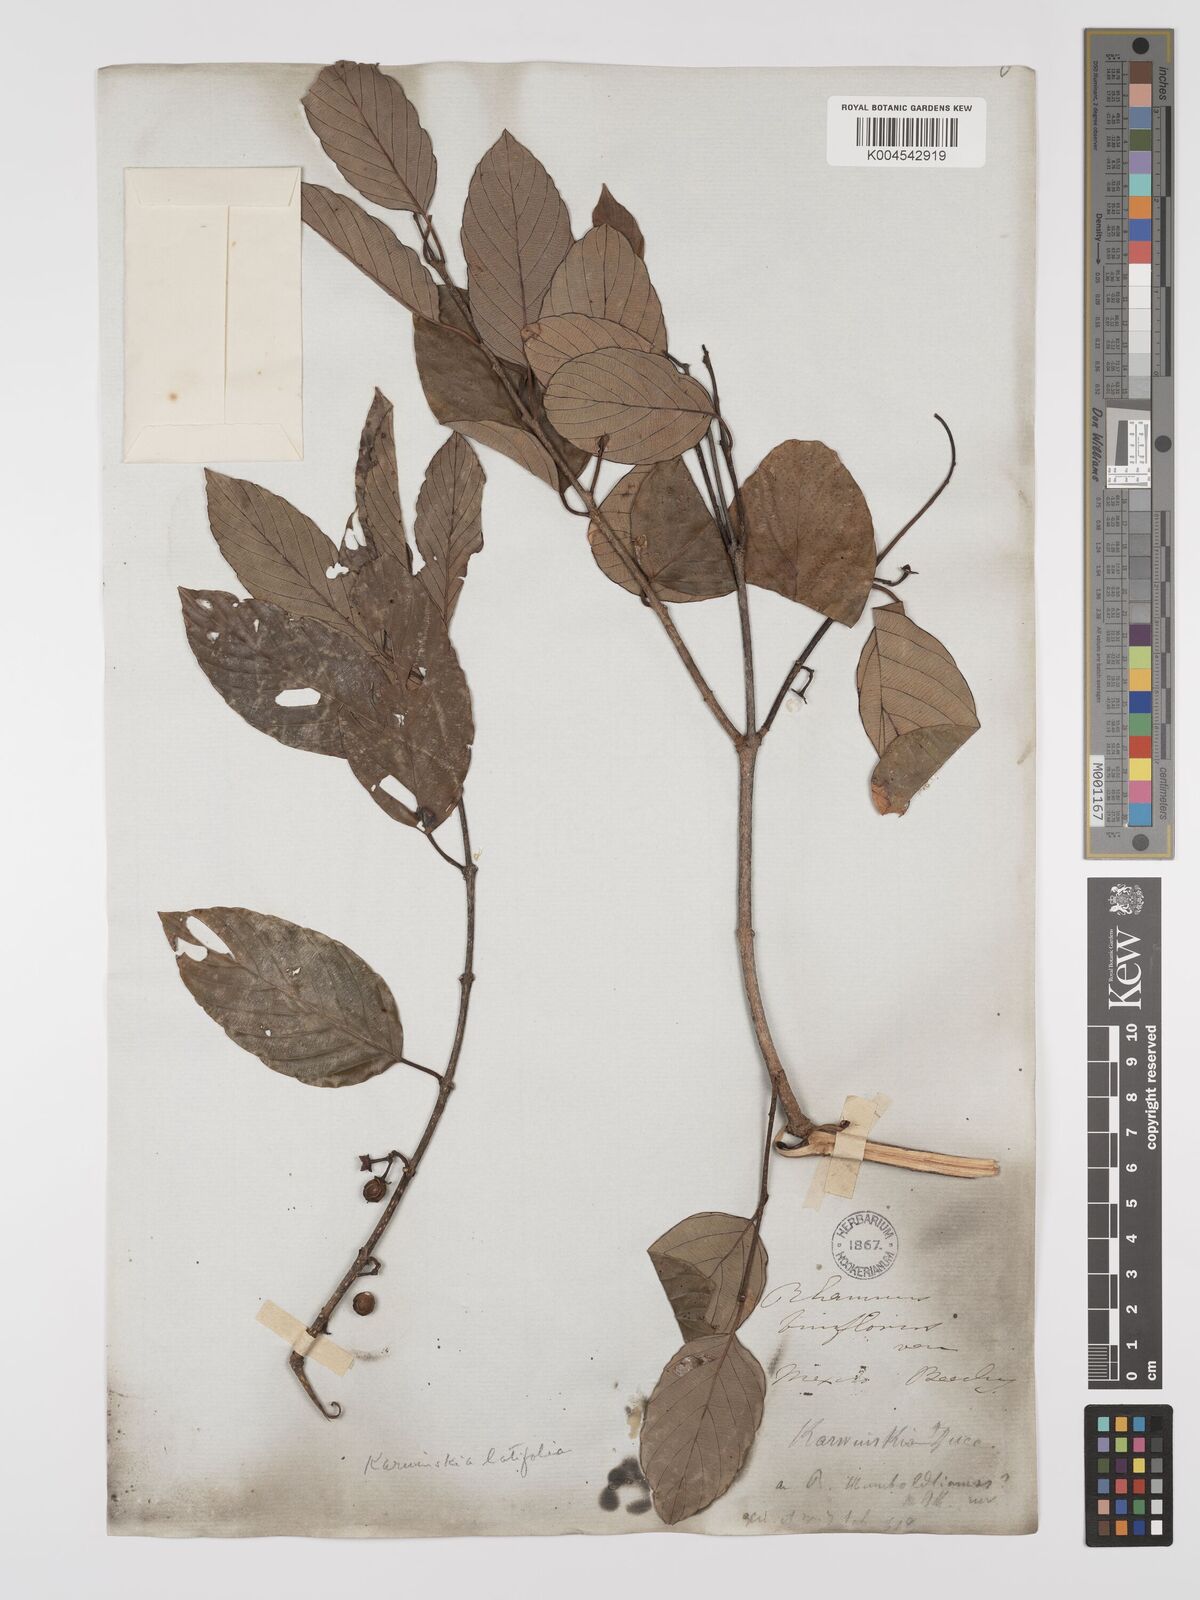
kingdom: Plantae
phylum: Tracheophyta
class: Magnoliopsida
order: Rosales
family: Rhamnaceae
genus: Karwinskia
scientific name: Karwinskia latifolia
